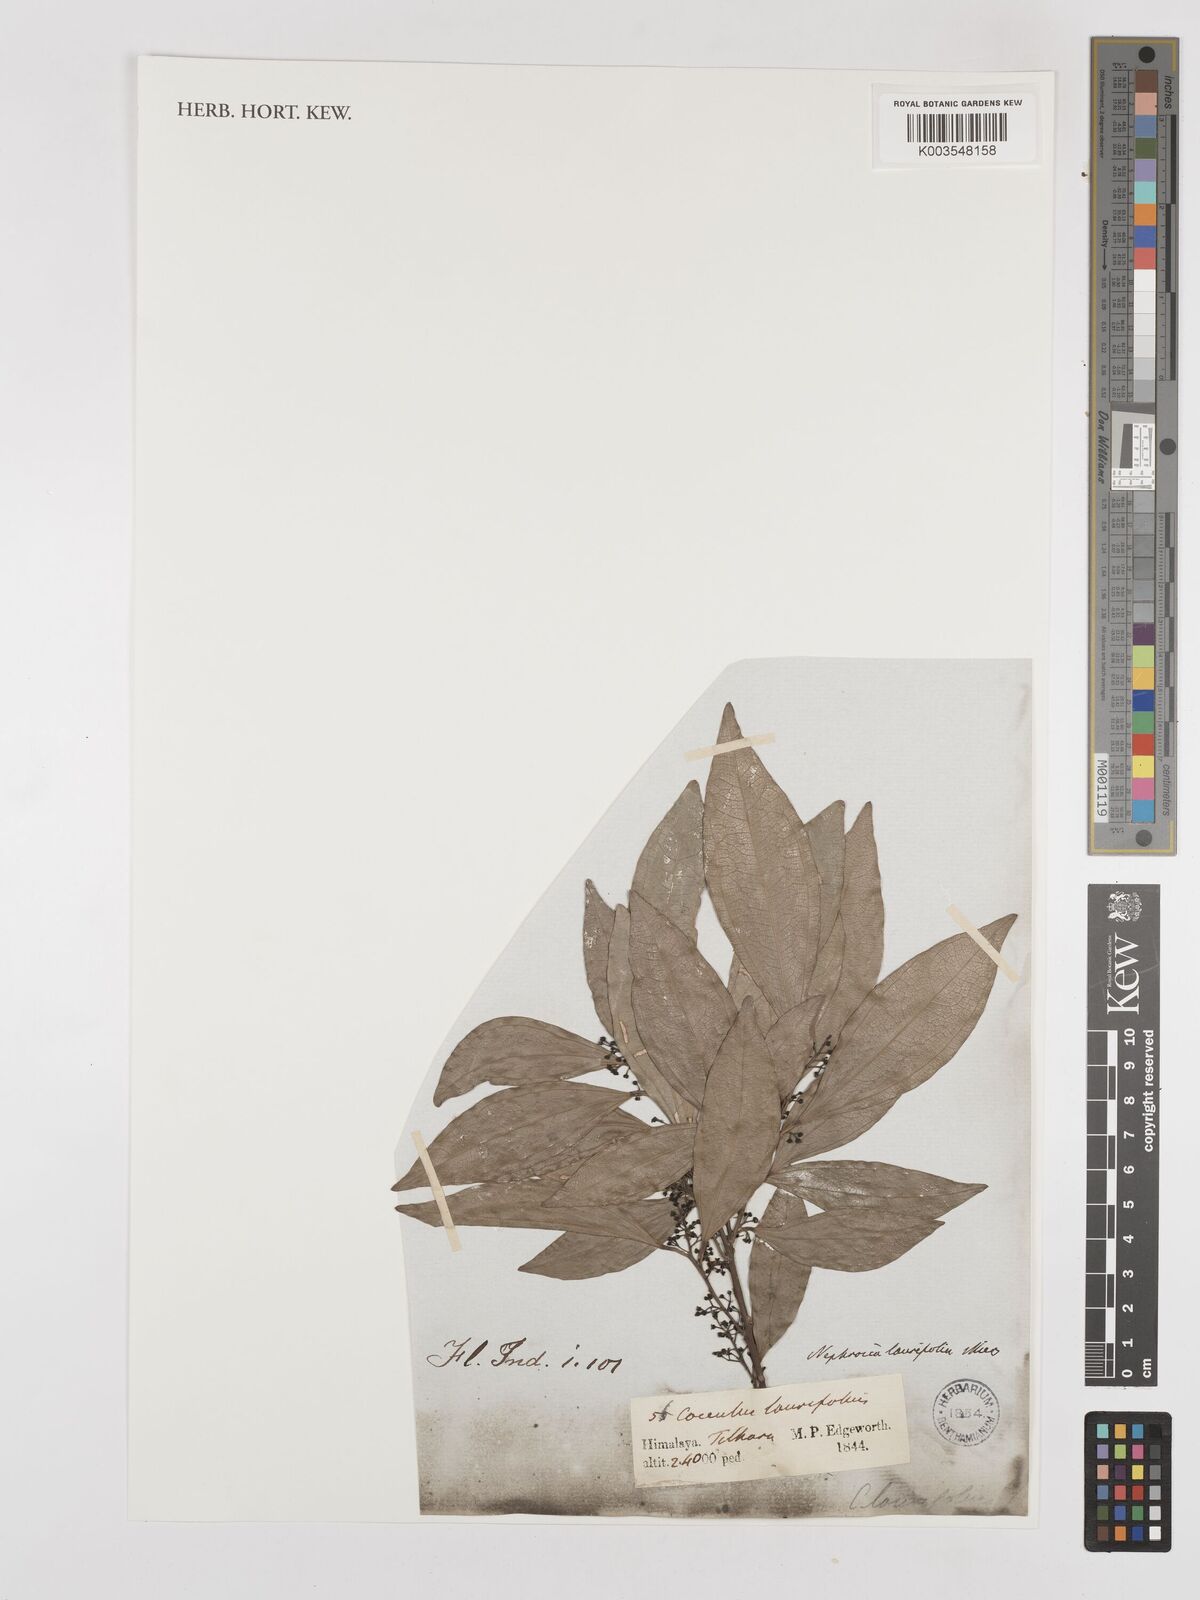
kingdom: Plantae
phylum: Tracheophyta
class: Magnoliopsida
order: Ranunculales
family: Menispermaceae
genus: Cocculus
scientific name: Cocculus laurifolius
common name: Laurel-leaf snailseed
